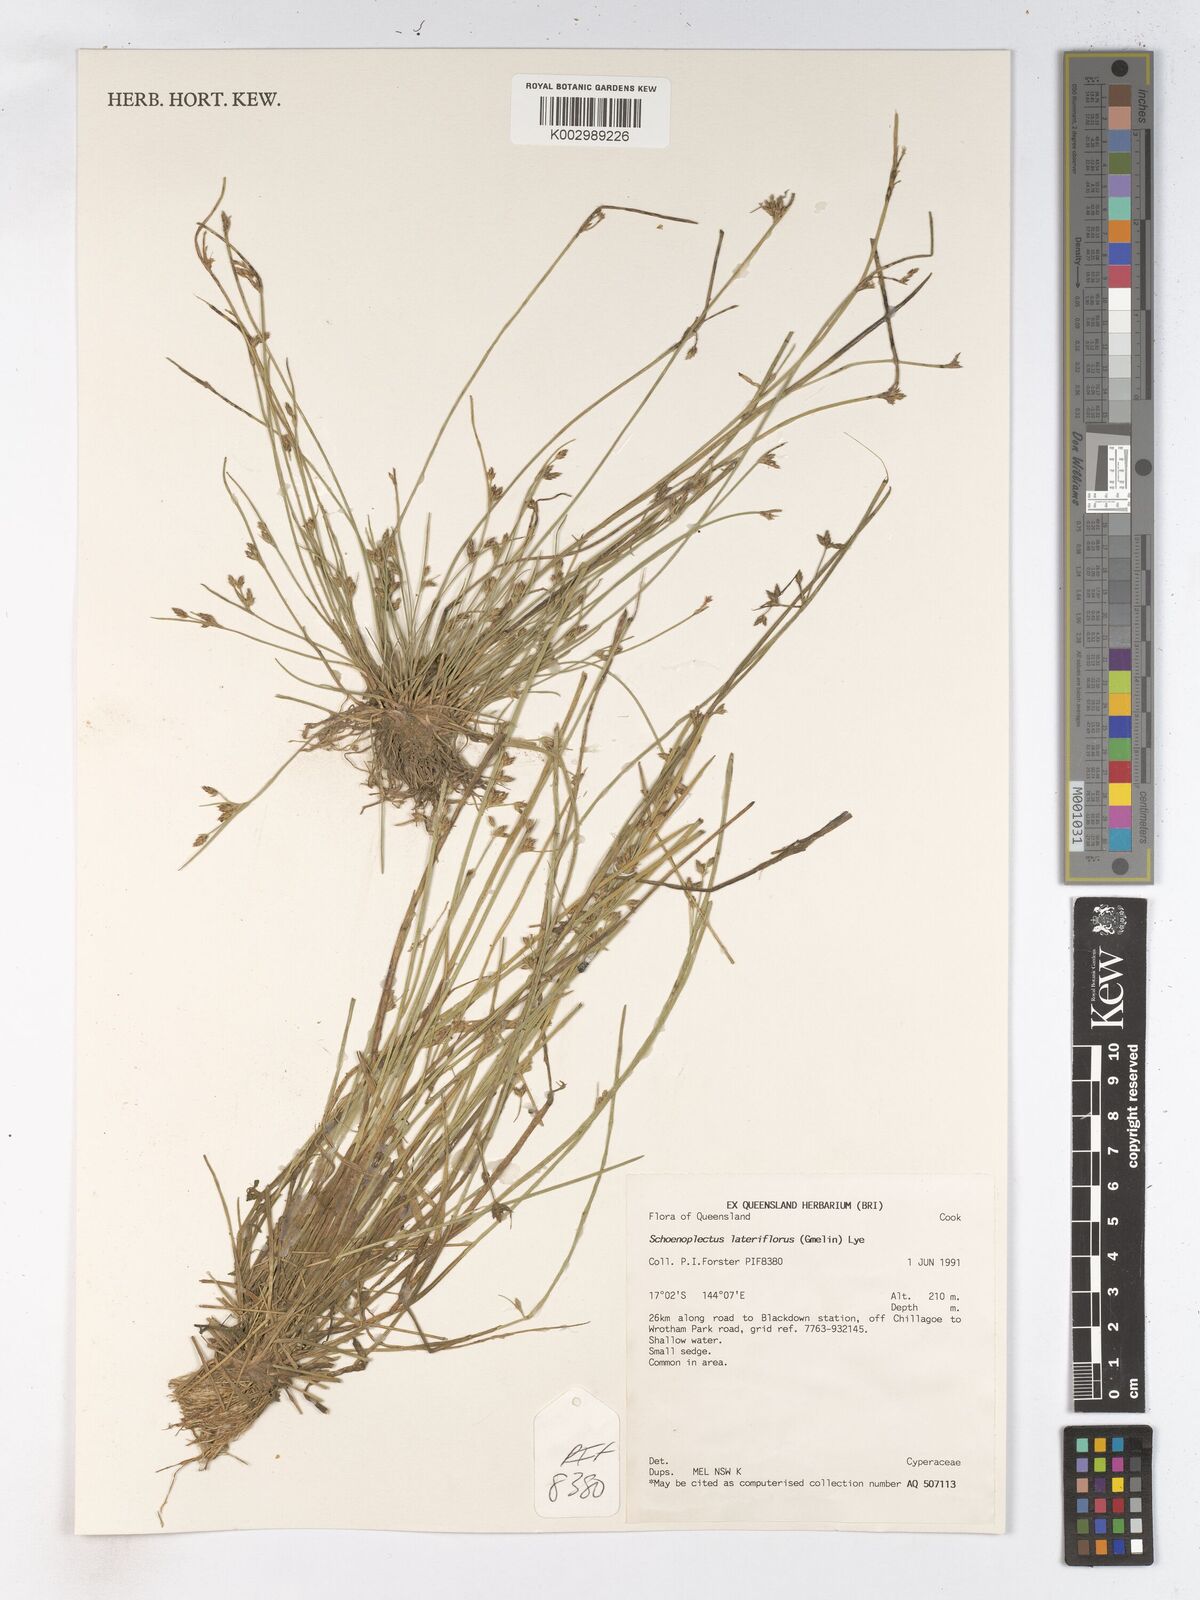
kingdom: Plantae
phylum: Tracheophyta
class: Liliopsida
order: Poales
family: Cyperaceae
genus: Schoenoplectiella
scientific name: Schoenoplectiella supina
